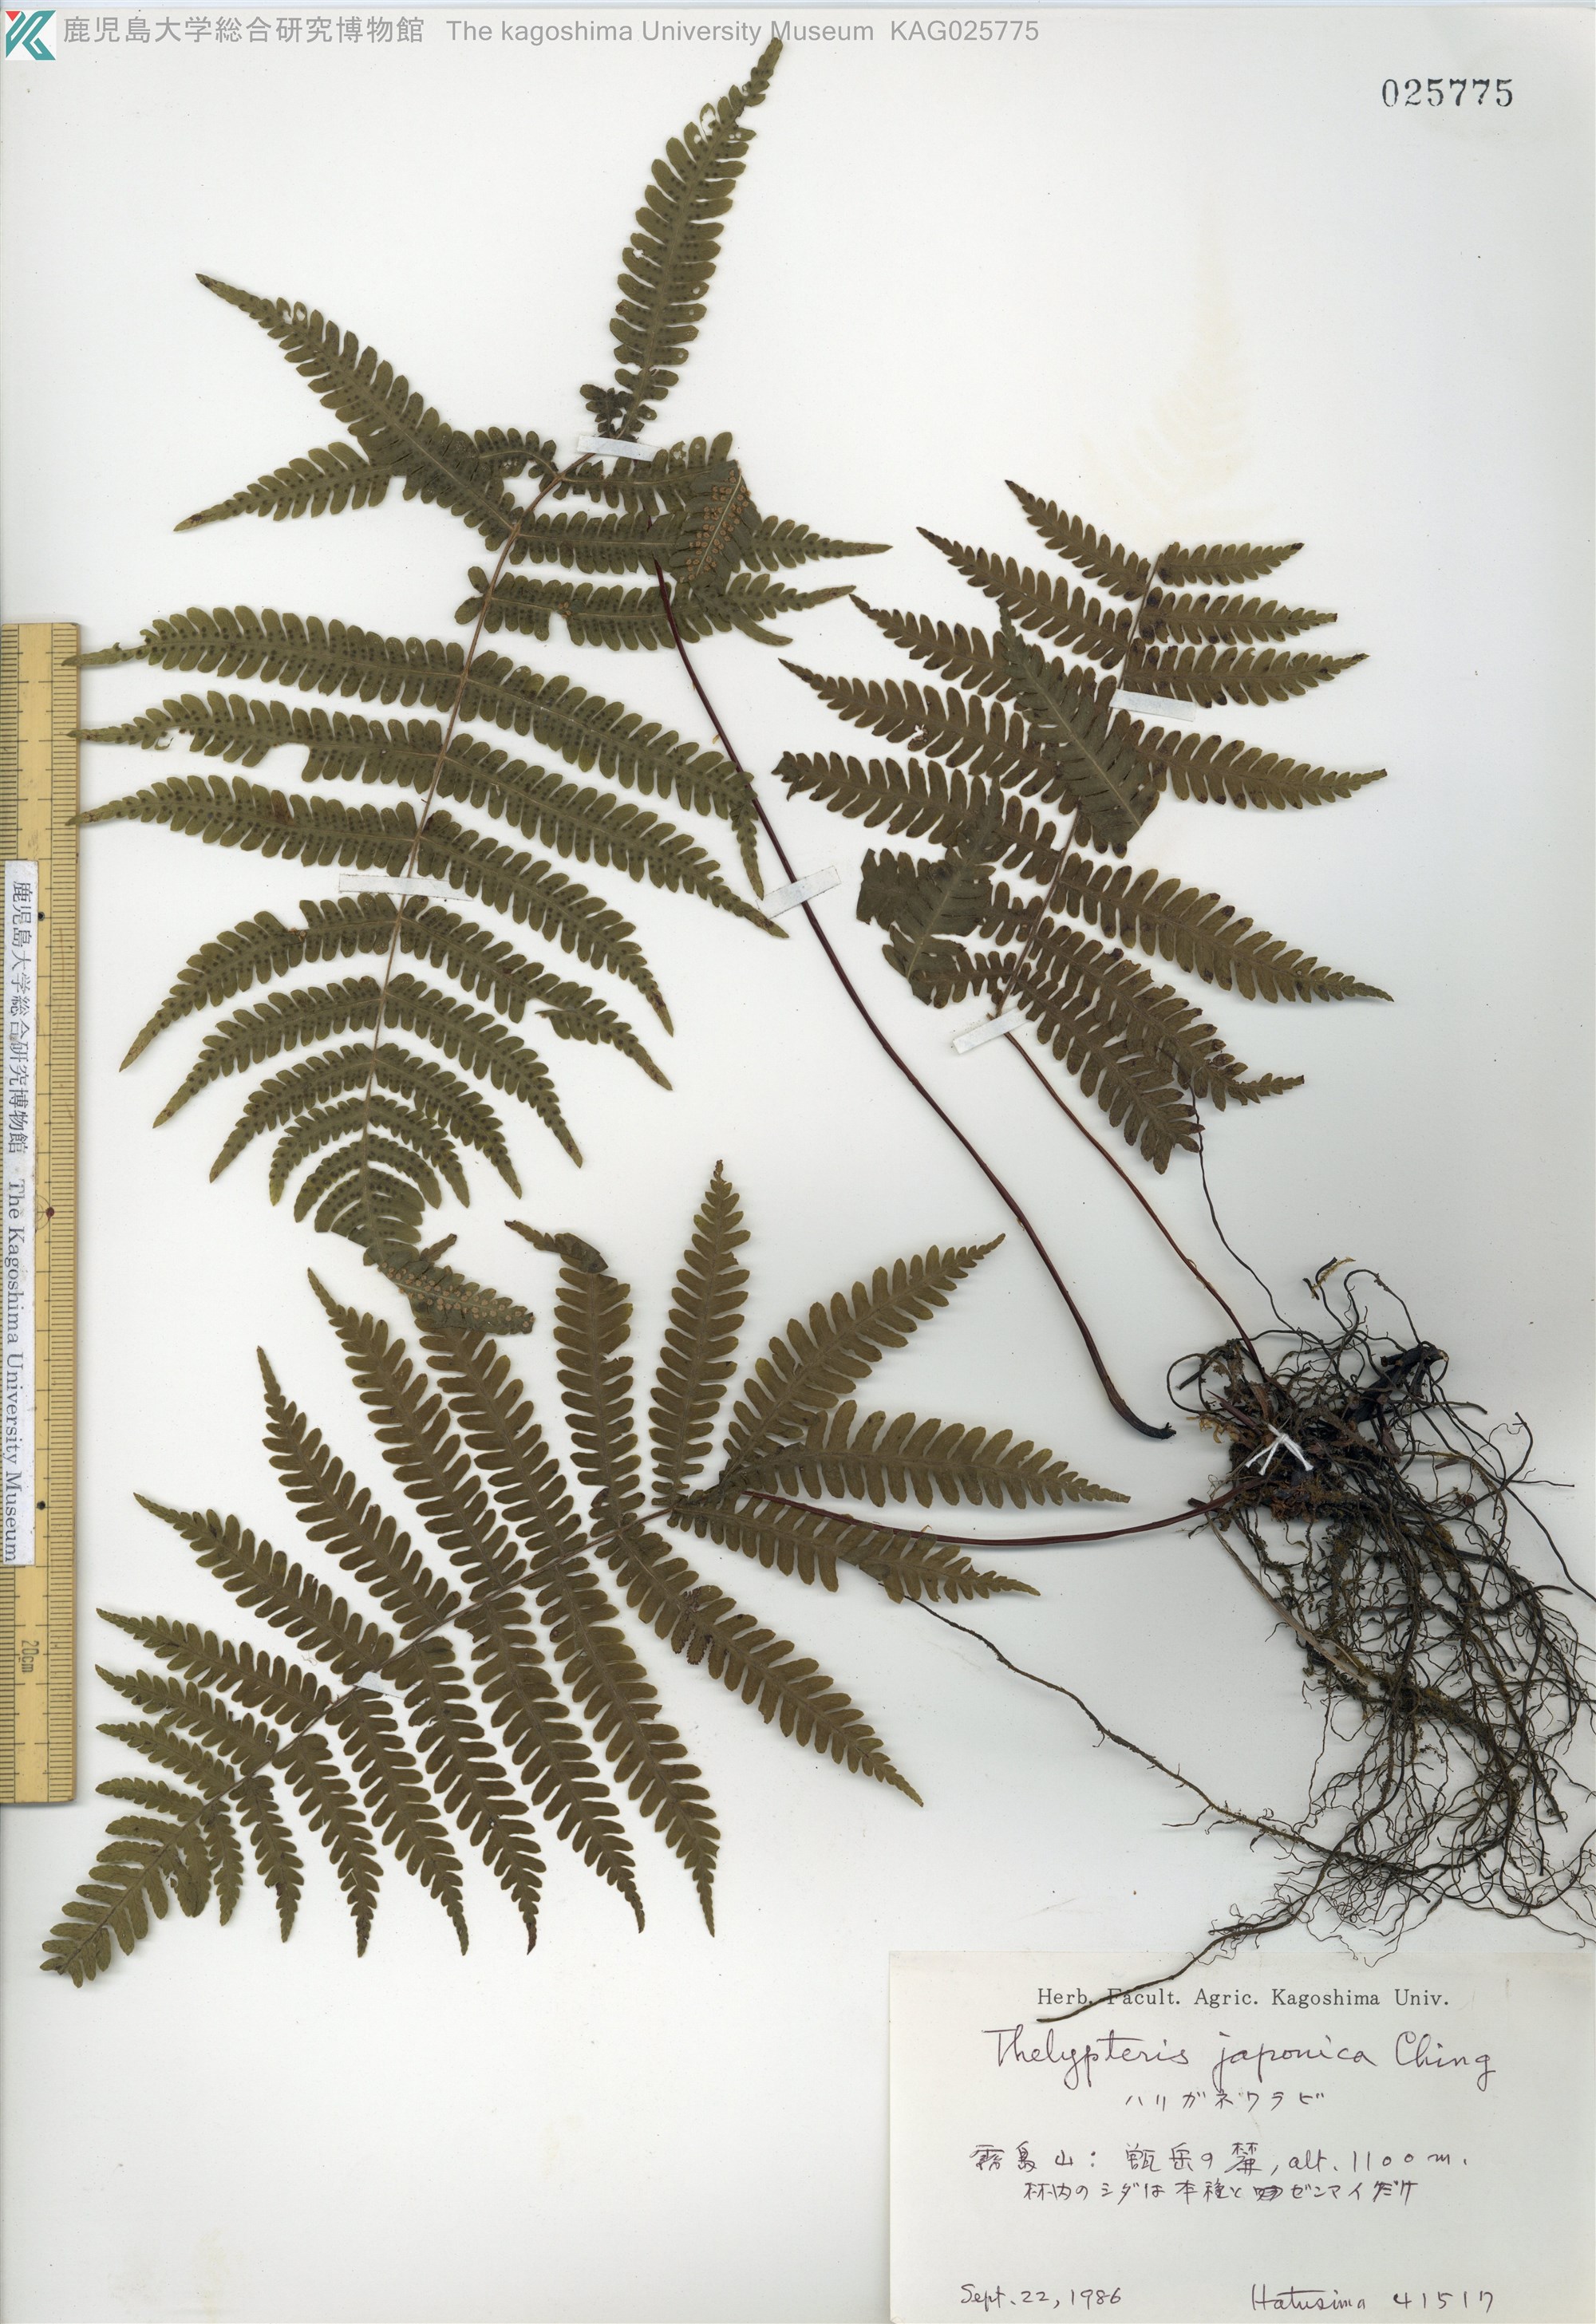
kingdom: Plantae
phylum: Tracheophyta
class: Polypodiopsida
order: Polypodiales
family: Thelypteridaceae
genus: Coryphopteris
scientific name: Coryphopteris japonica
